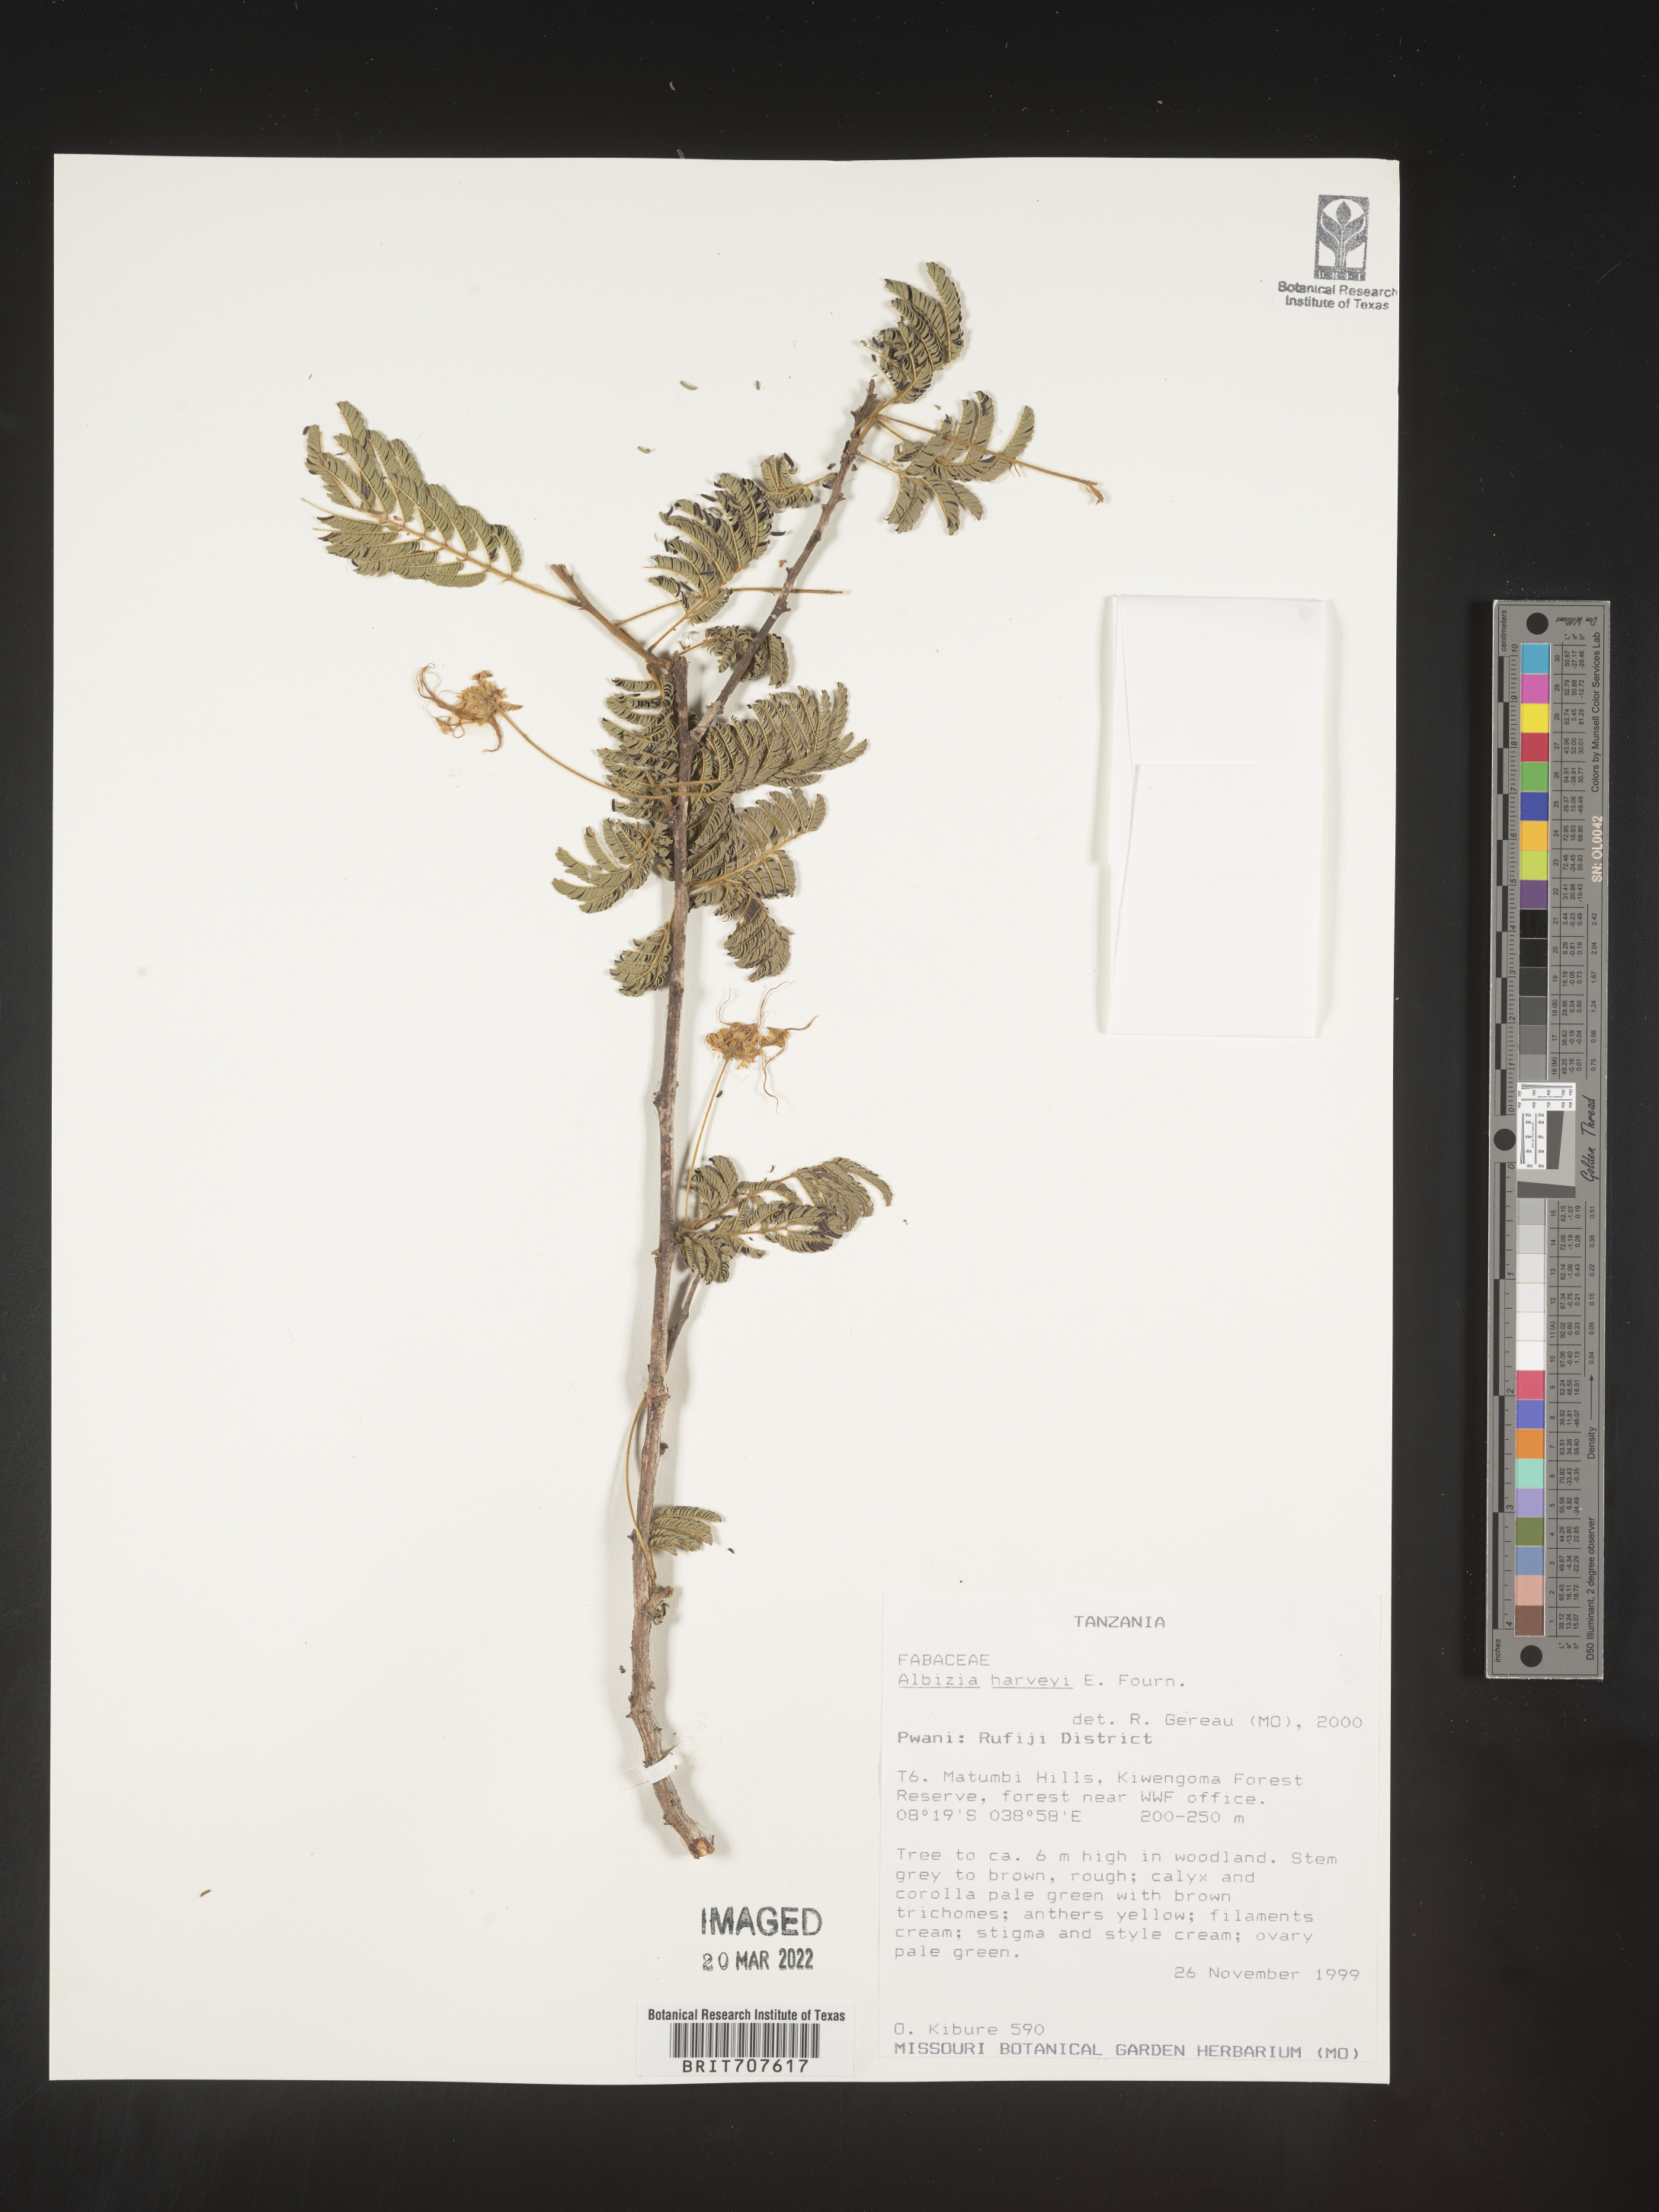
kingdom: Plantae
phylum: Tracheophyta
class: Magnoliopsida
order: Fabales
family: Fabaceae
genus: Albizia
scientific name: Albizia
